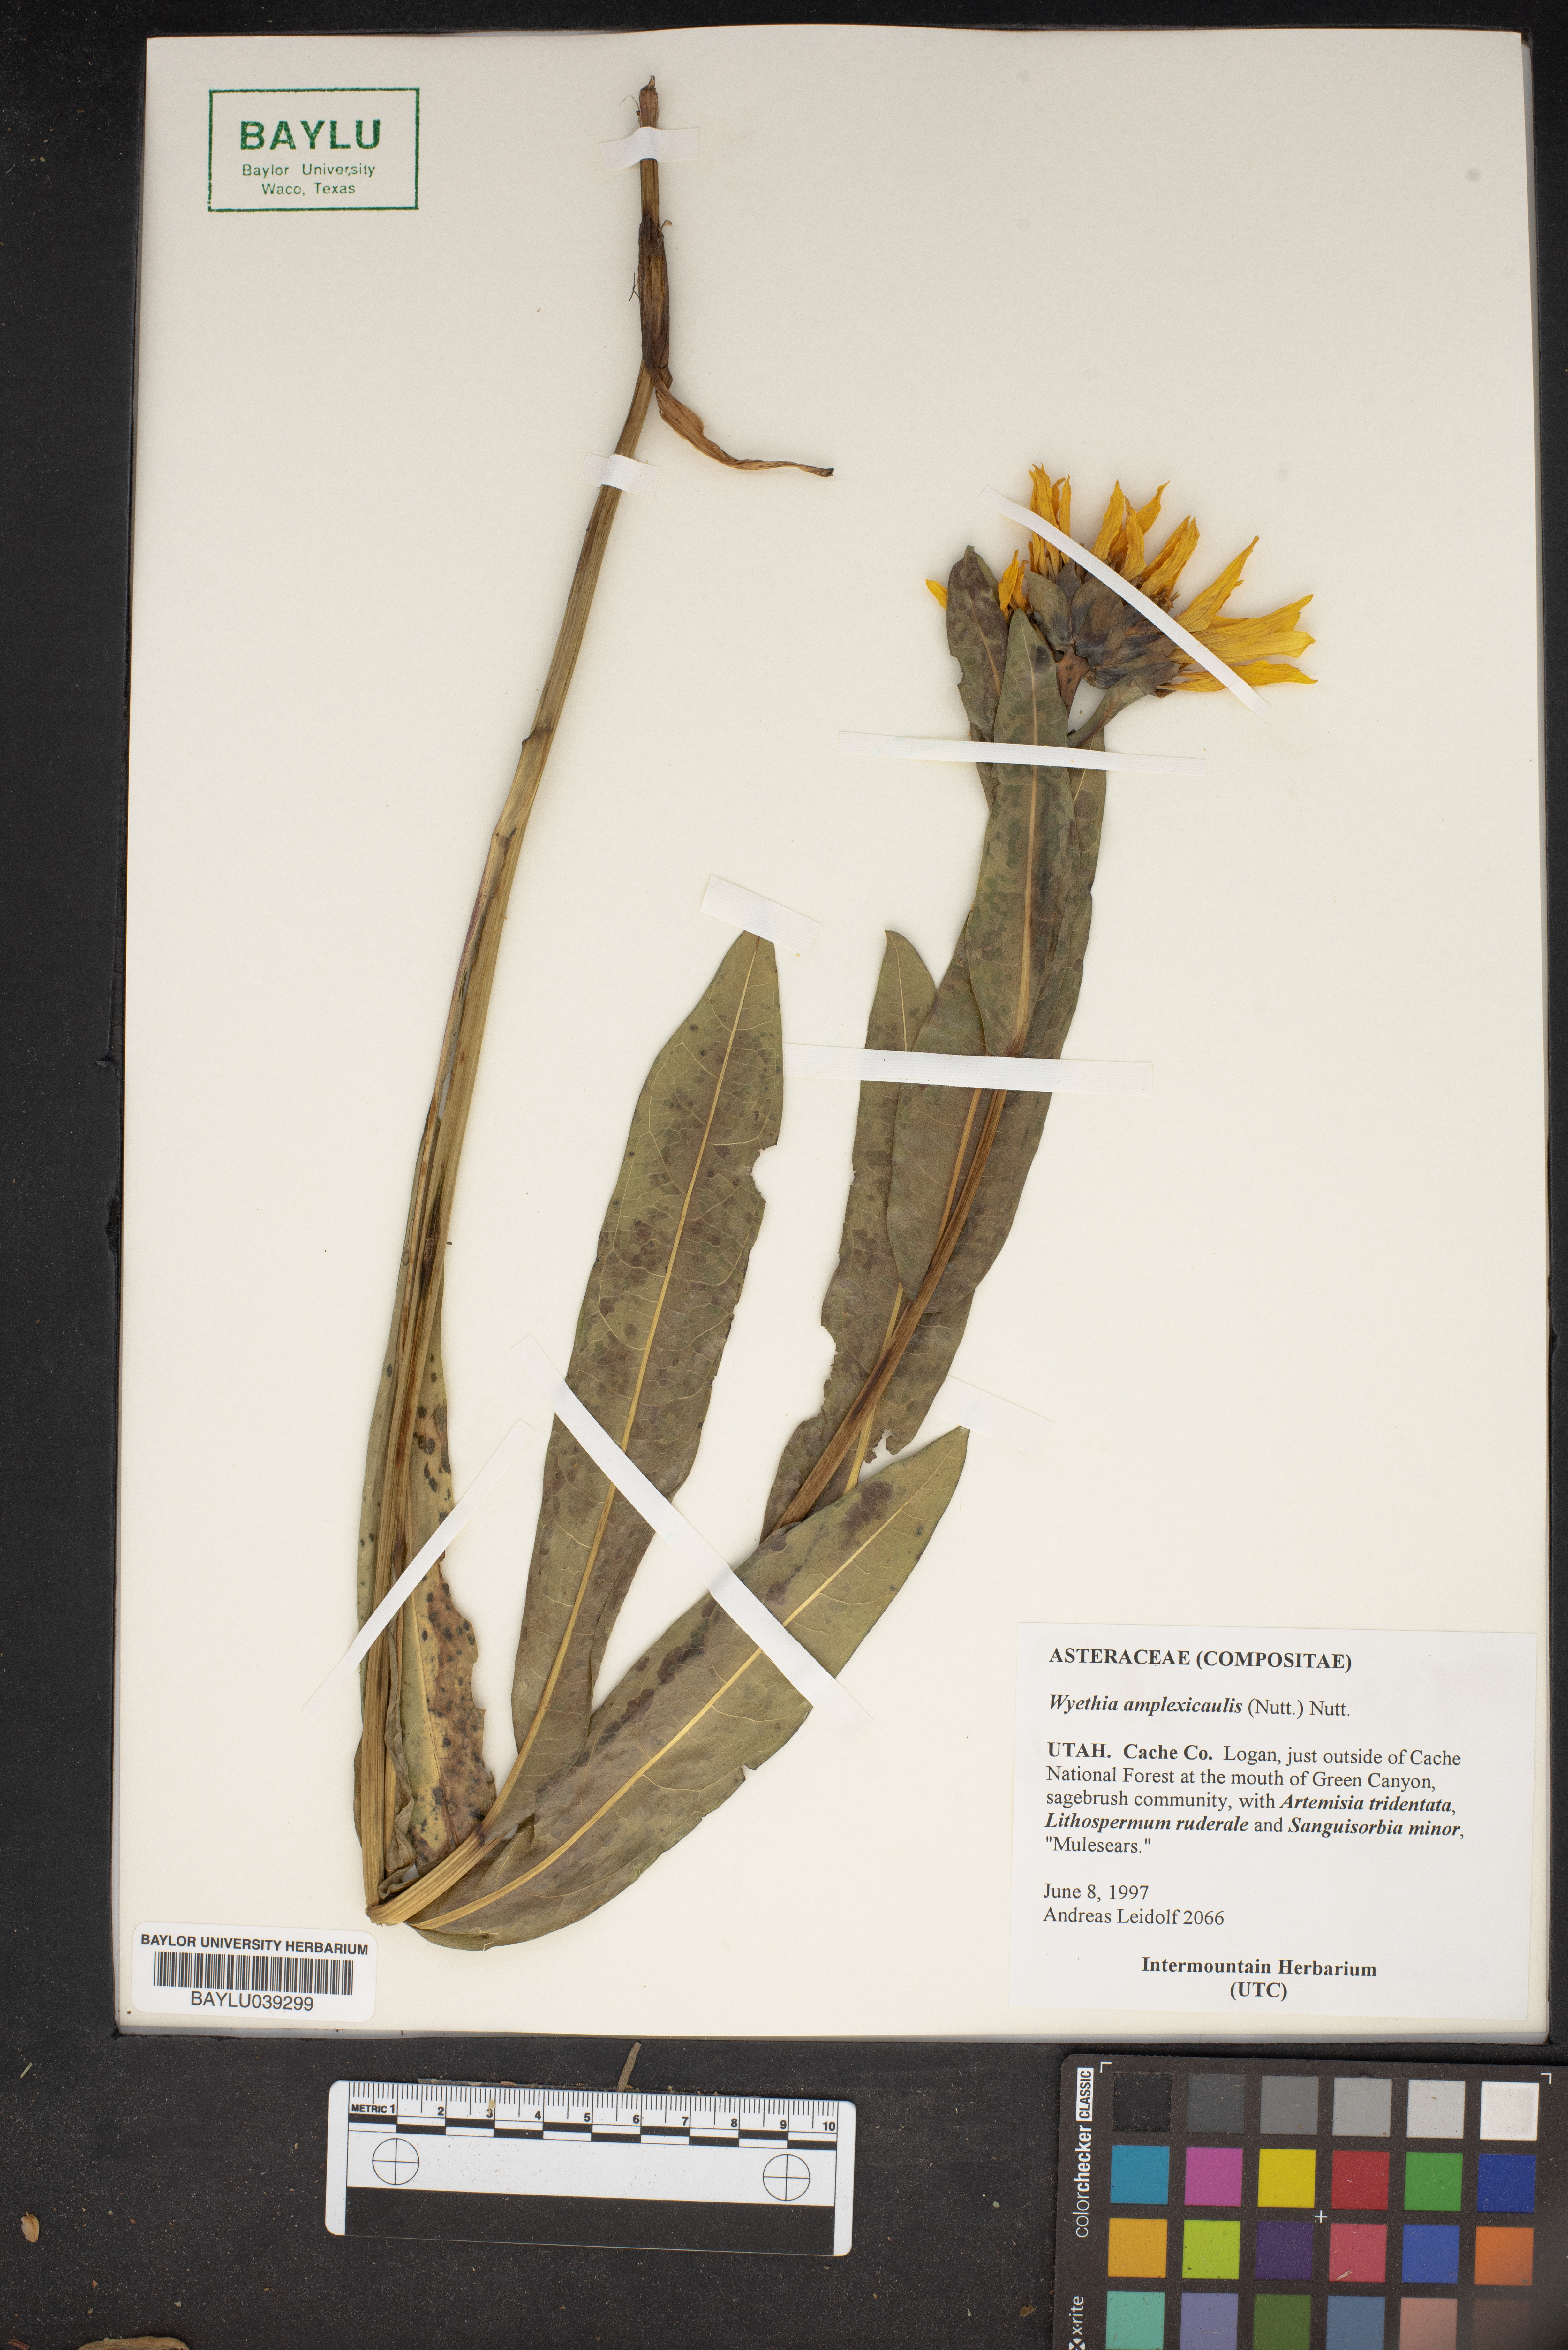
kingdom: Plantae
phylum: Tracheophyta
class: Magnoliopsida
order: Asterales
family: Asteraceae
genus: Wyethia
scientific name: Wyethia amplexicaulis
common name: Northern mule's-ears
